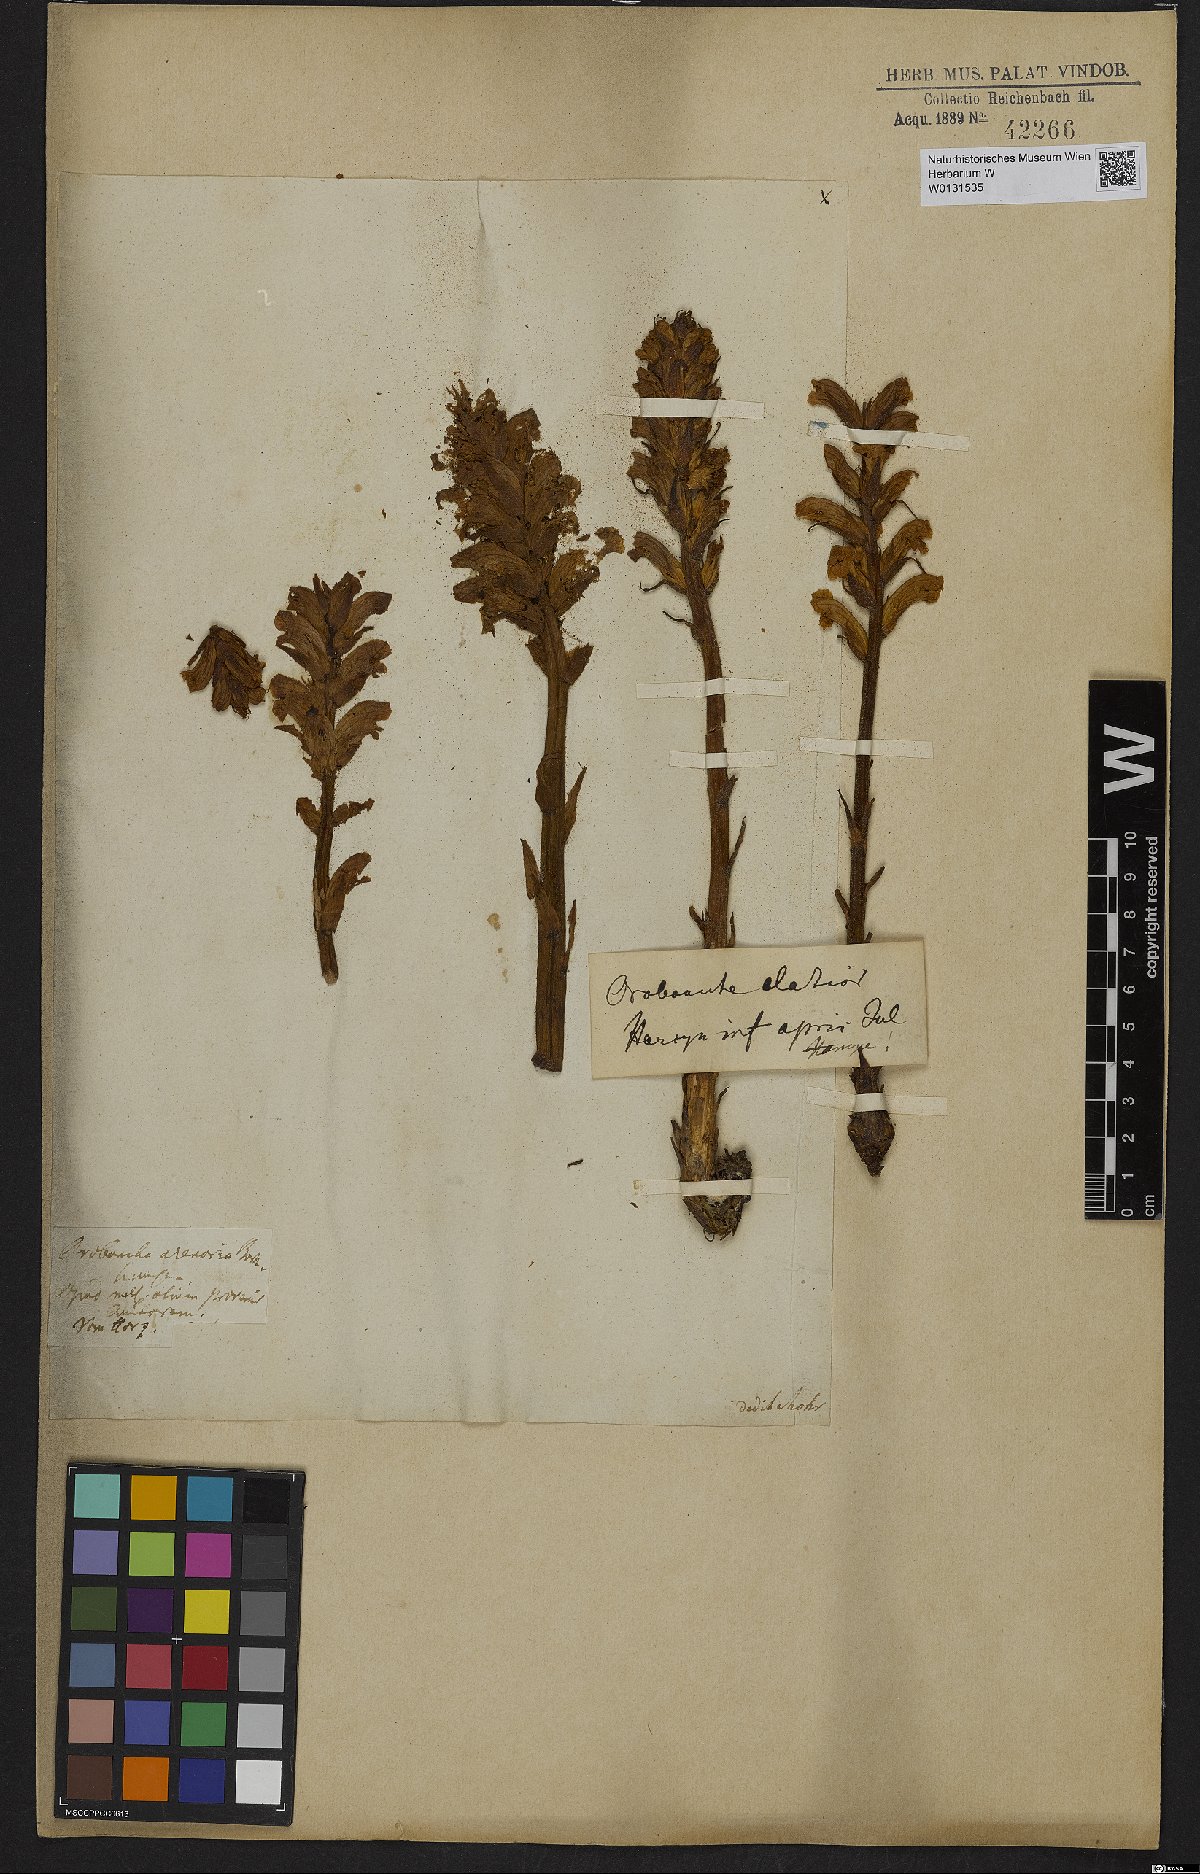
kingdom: Plantae
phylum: Tracheophyta
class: Magnoliopsida
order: Lamiales
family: Orobanchaceae
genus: Orobanche
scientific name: Orobanche lutea
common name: Yellow broomrape
